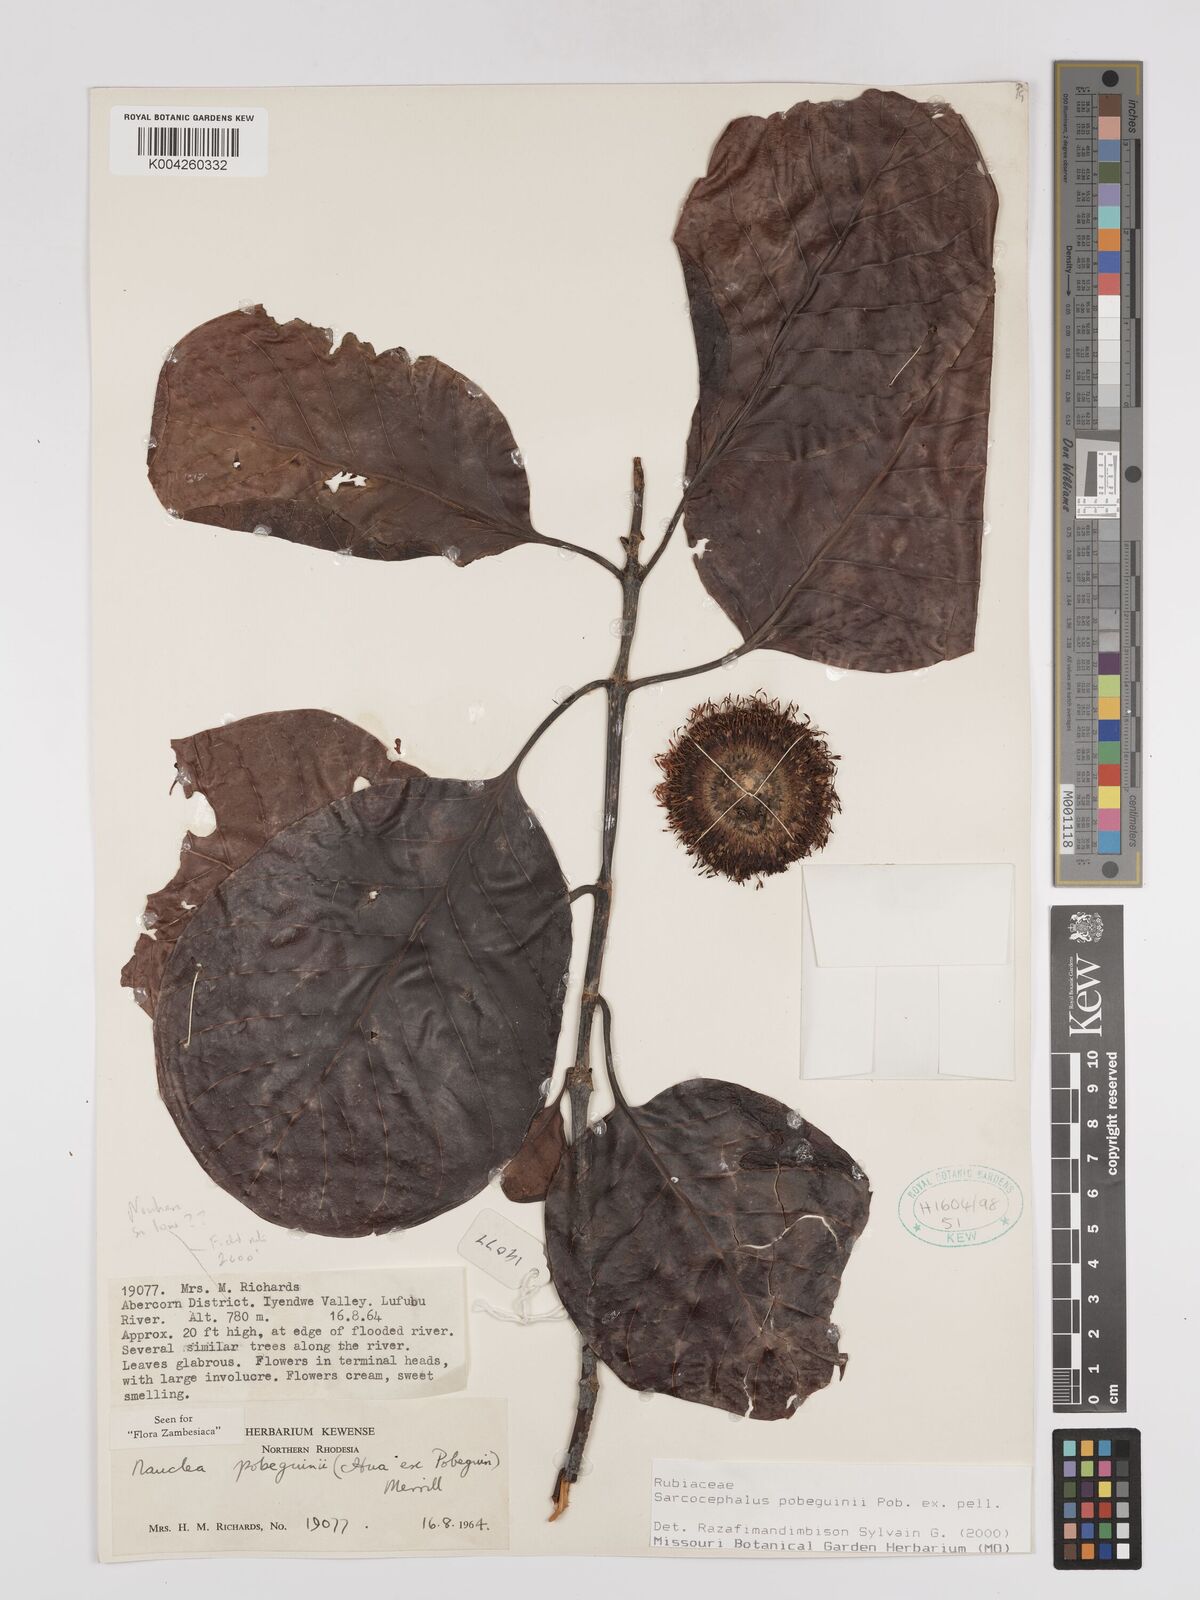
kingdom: Plantae
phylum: Tracheophyta
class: Magnoliopsida
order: Gentianales
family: Rubiaceae
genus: Nauclea
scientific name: Nauclea pobeguinii
